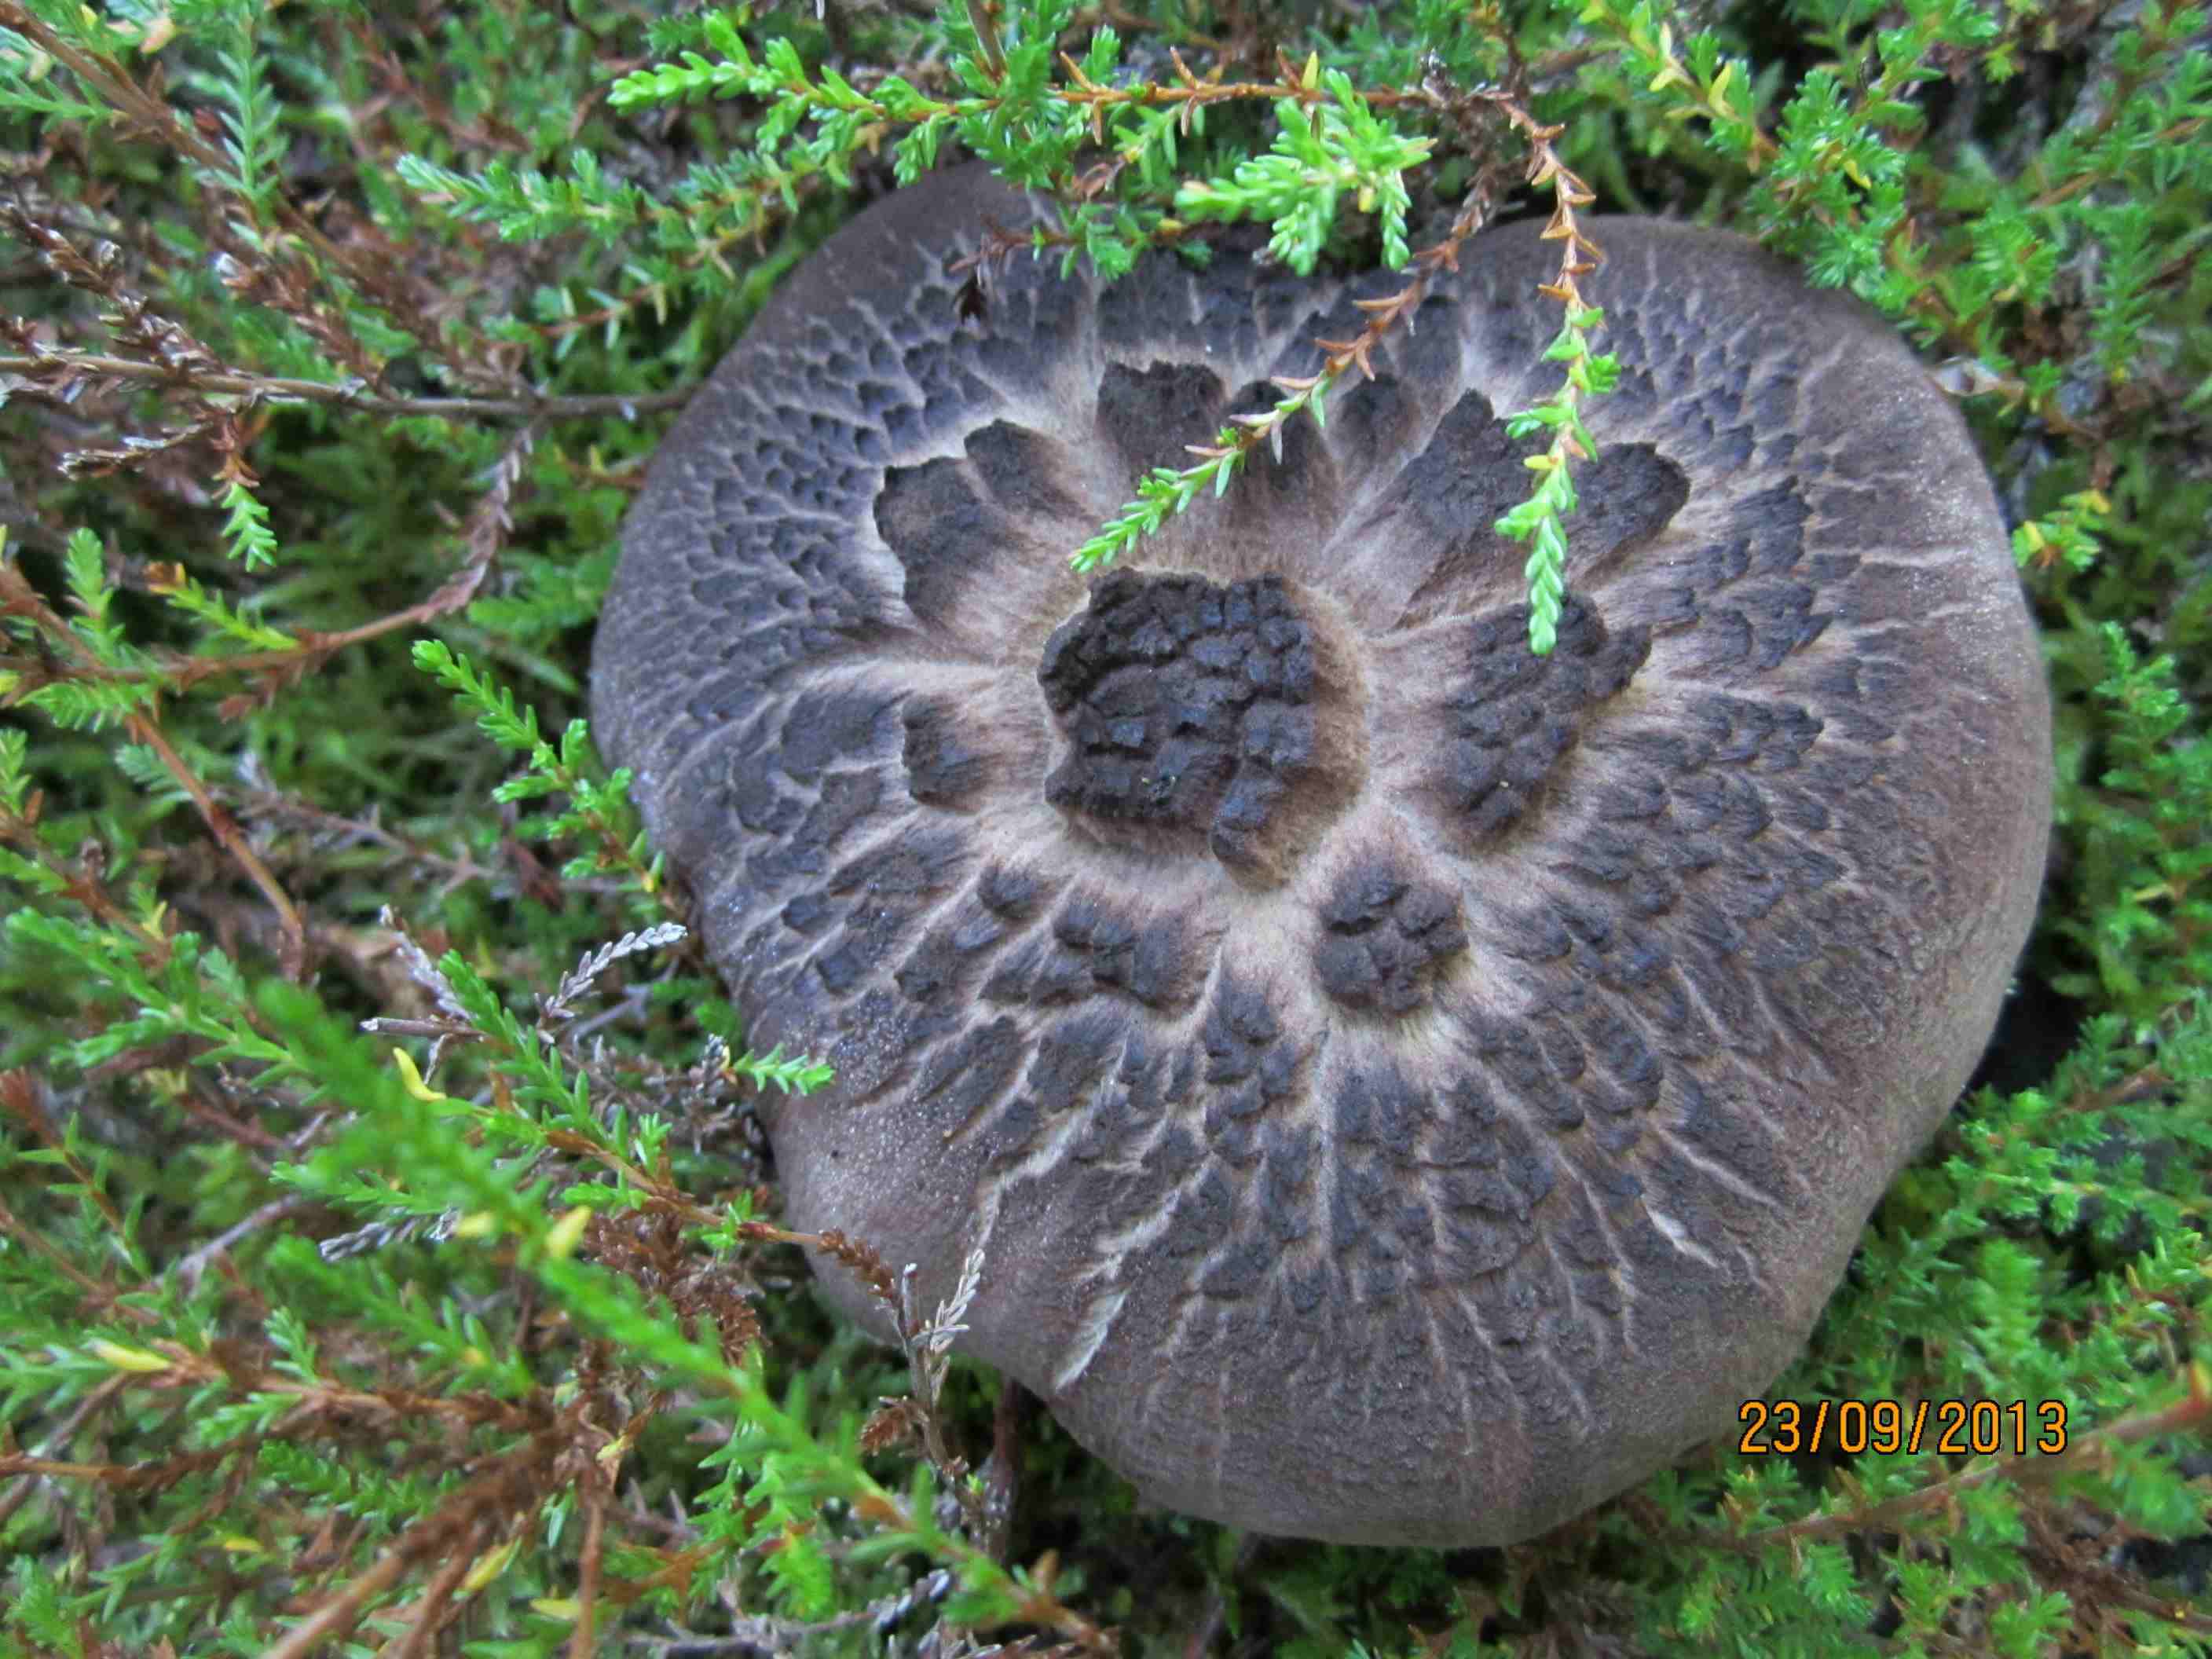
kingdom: Fungi
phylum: Basidiomycota
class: Agaricomycetes
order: Thelephorales
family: Bankeraceae
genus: Sarcodon
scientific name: Sarcodon squamosus
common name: småskællet kødpigsvamp
